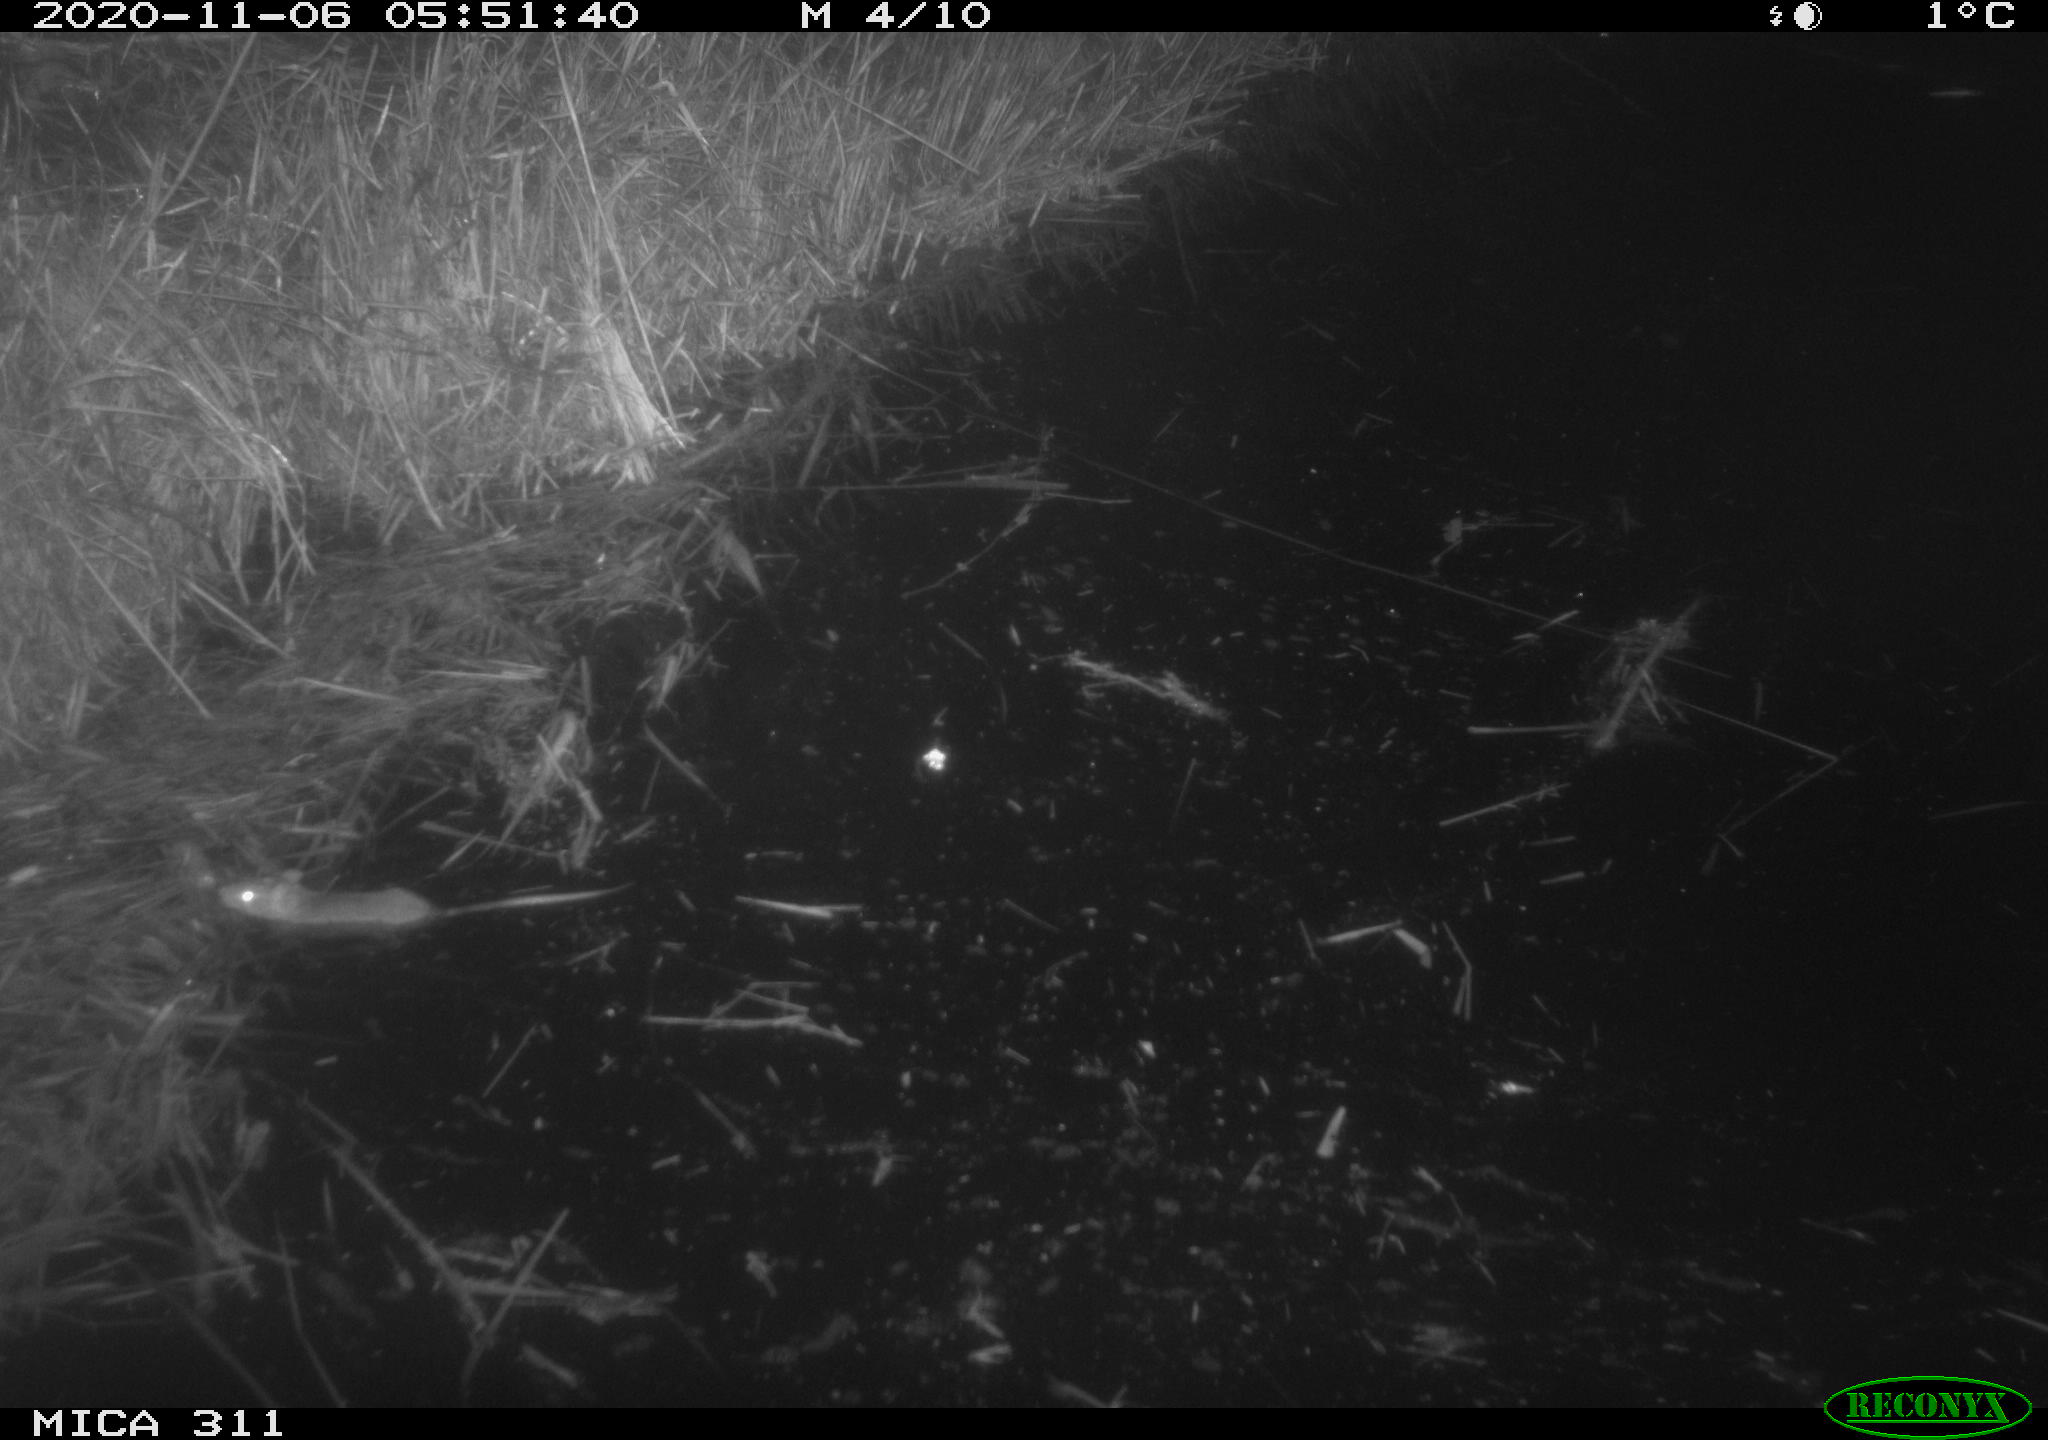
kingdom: Animalia
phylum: Chordata
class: Mammalia
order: Rodentia
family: Muridae
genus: Rattus
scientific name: Rattus norvegicus
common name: Brown rat
